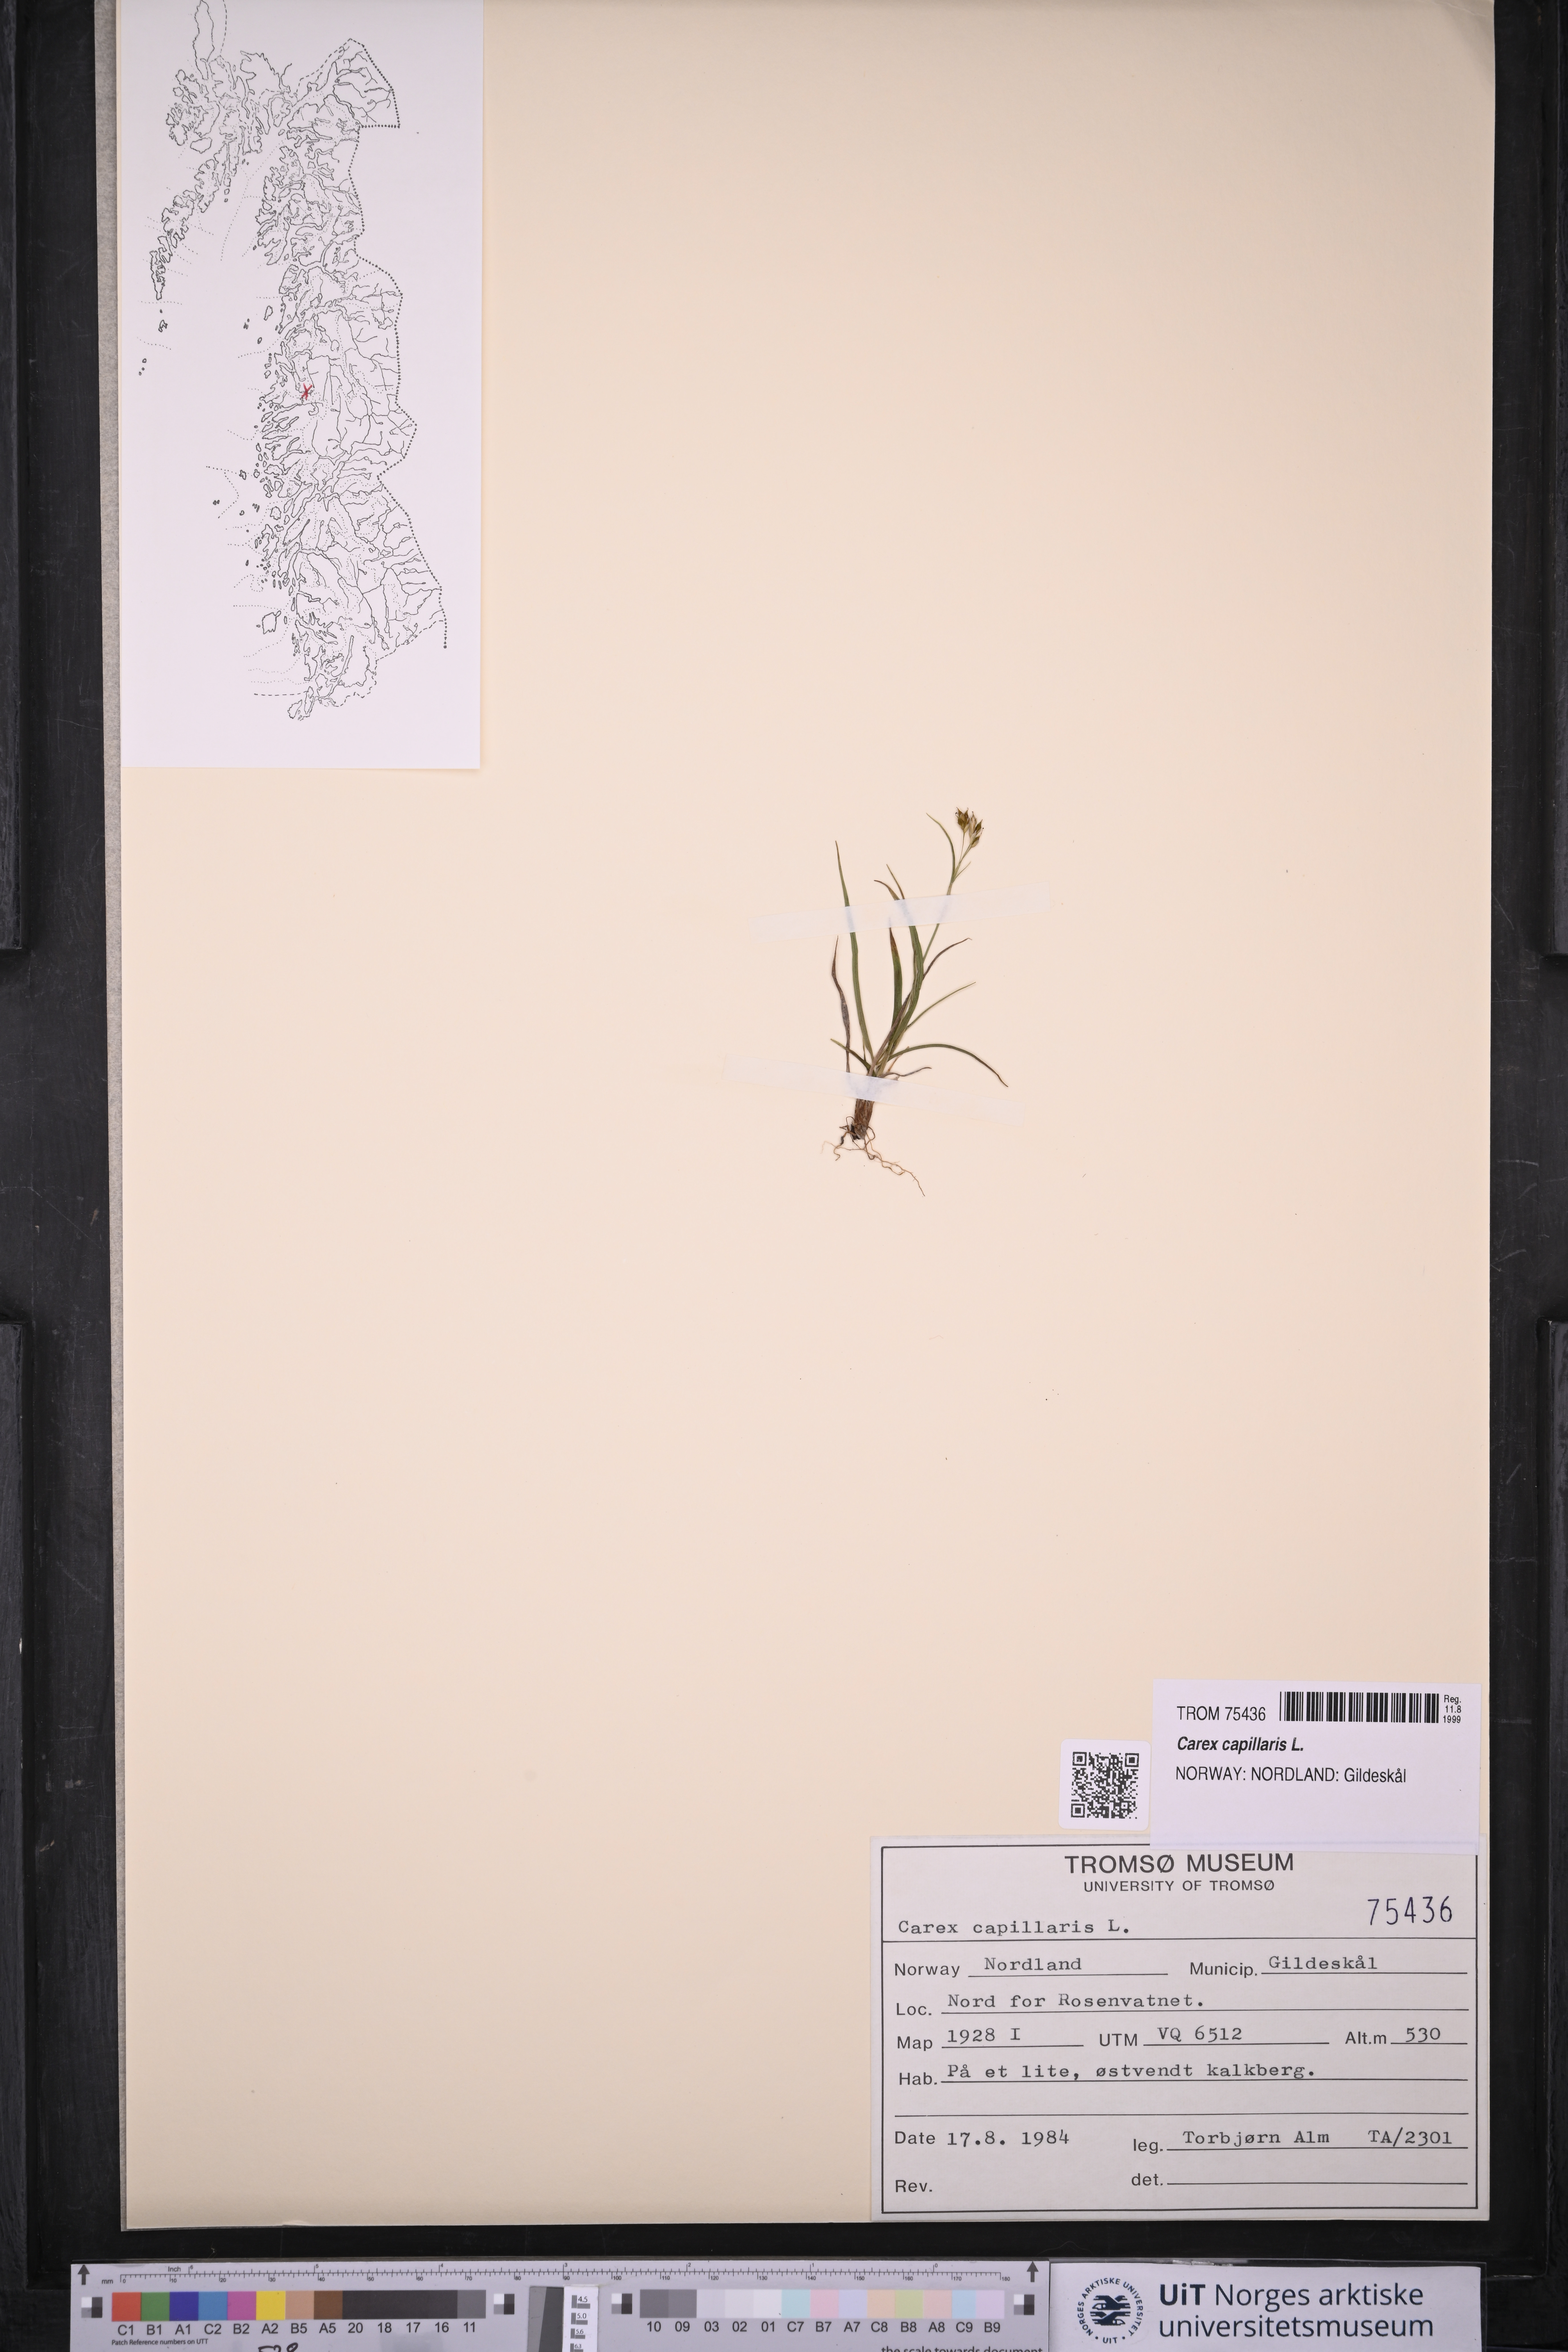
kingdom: Plantae
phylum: Tracheophyta
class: Liliopsida
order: Poales
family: Cyperaceae
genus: Carex
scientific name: Carex capillaris
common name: Hair sedge
